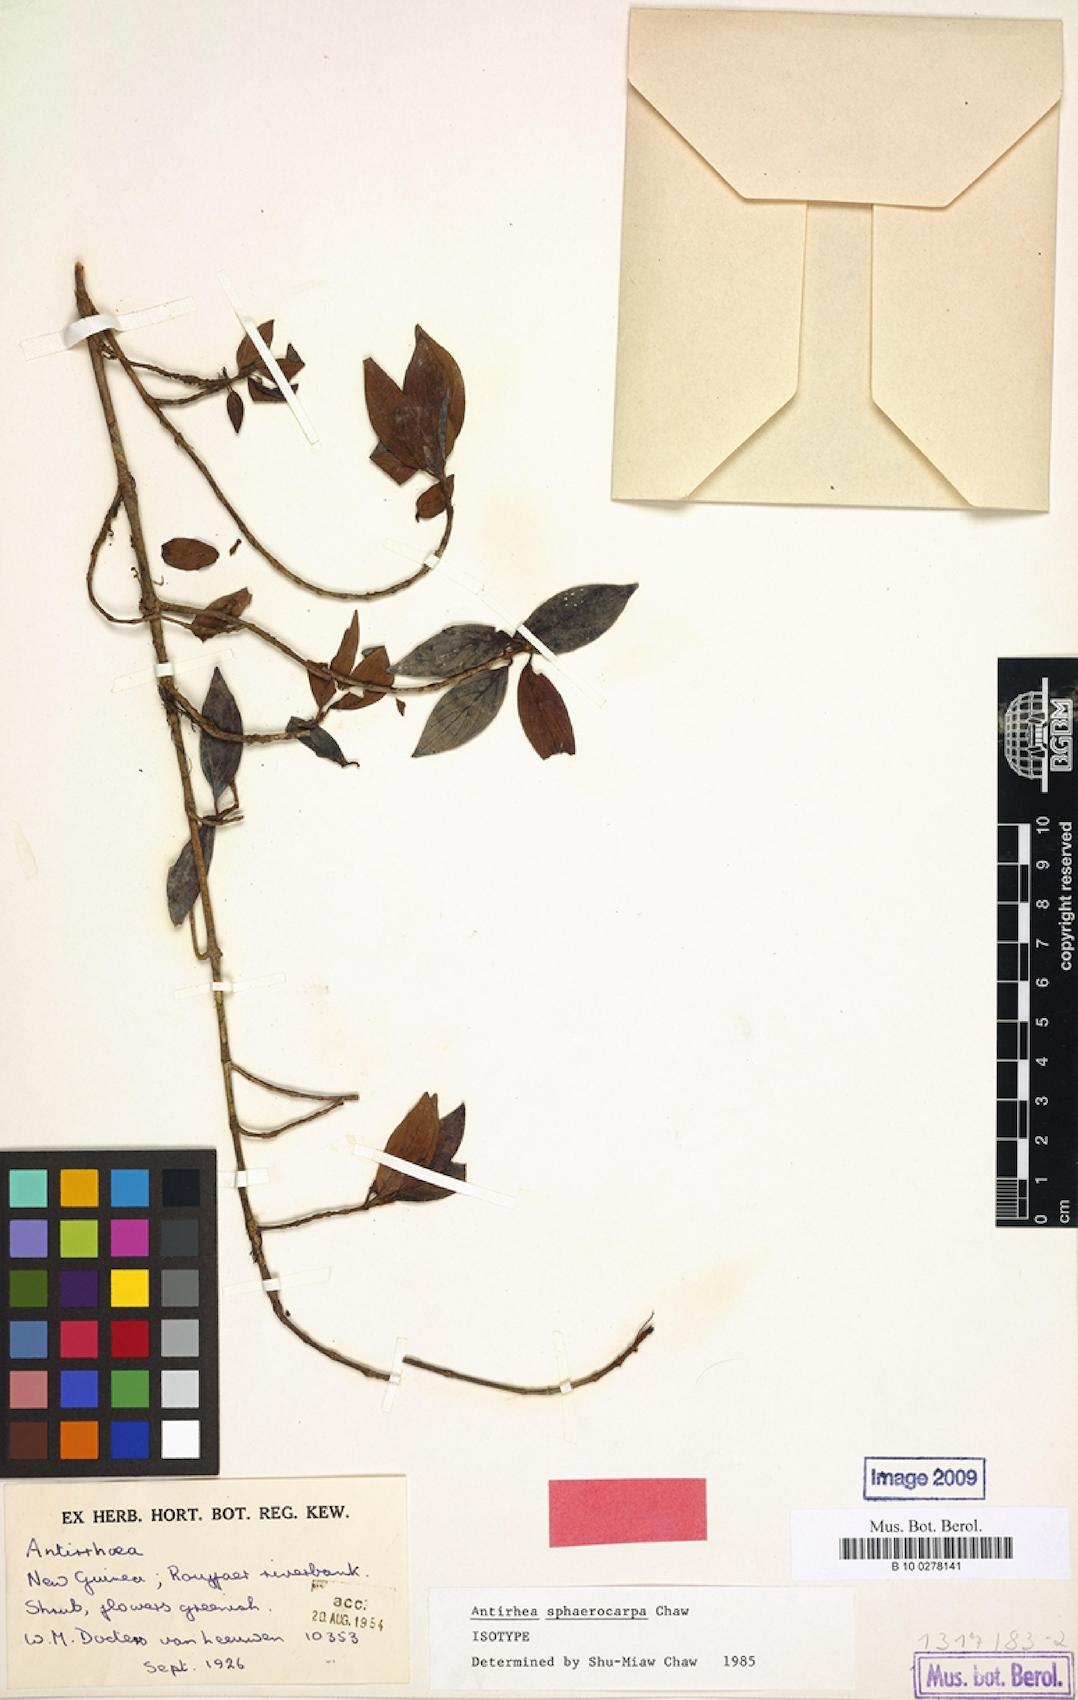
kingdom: Plantae
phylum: Tracheophyta
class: Magnoliopsida
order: Gentianales
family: Rubiaceae
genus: Antirhea
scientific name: Antirhea
